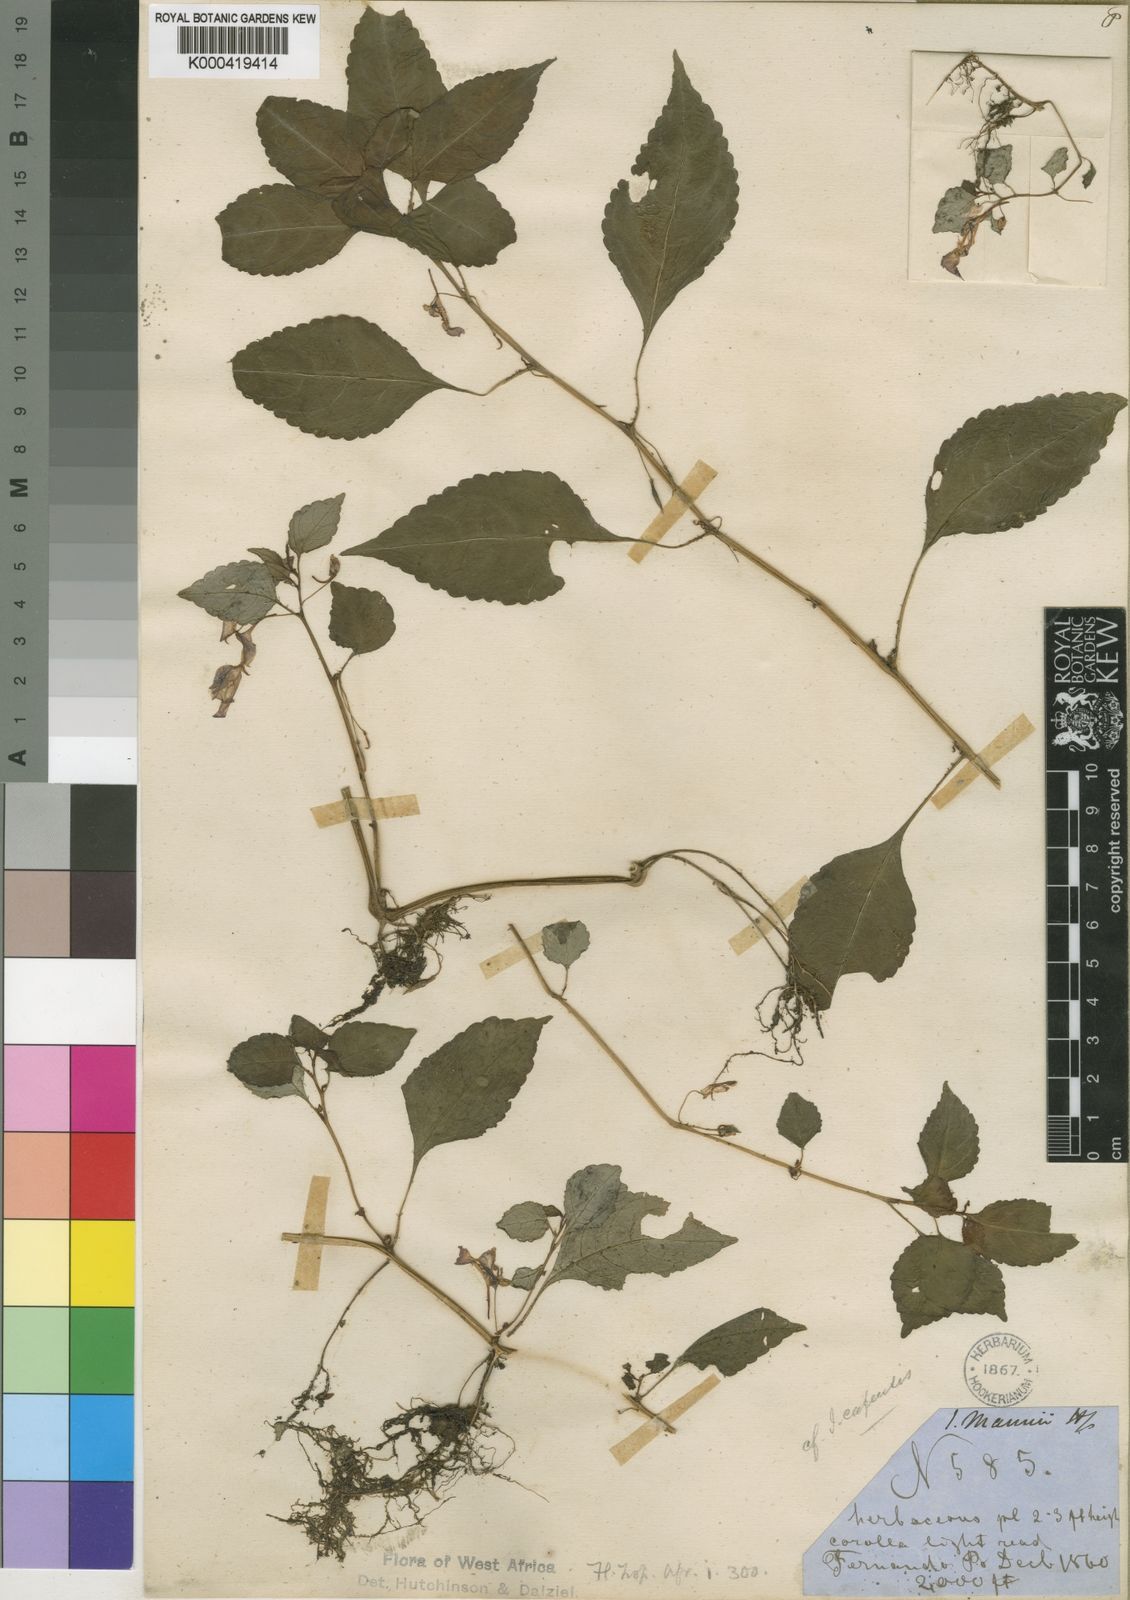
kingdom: Plantae
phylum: Tracheophyta
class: Magnoliopsida
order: Ericales
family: Balsaminaceae
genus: Impatiens
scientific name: Impatiens mannii
